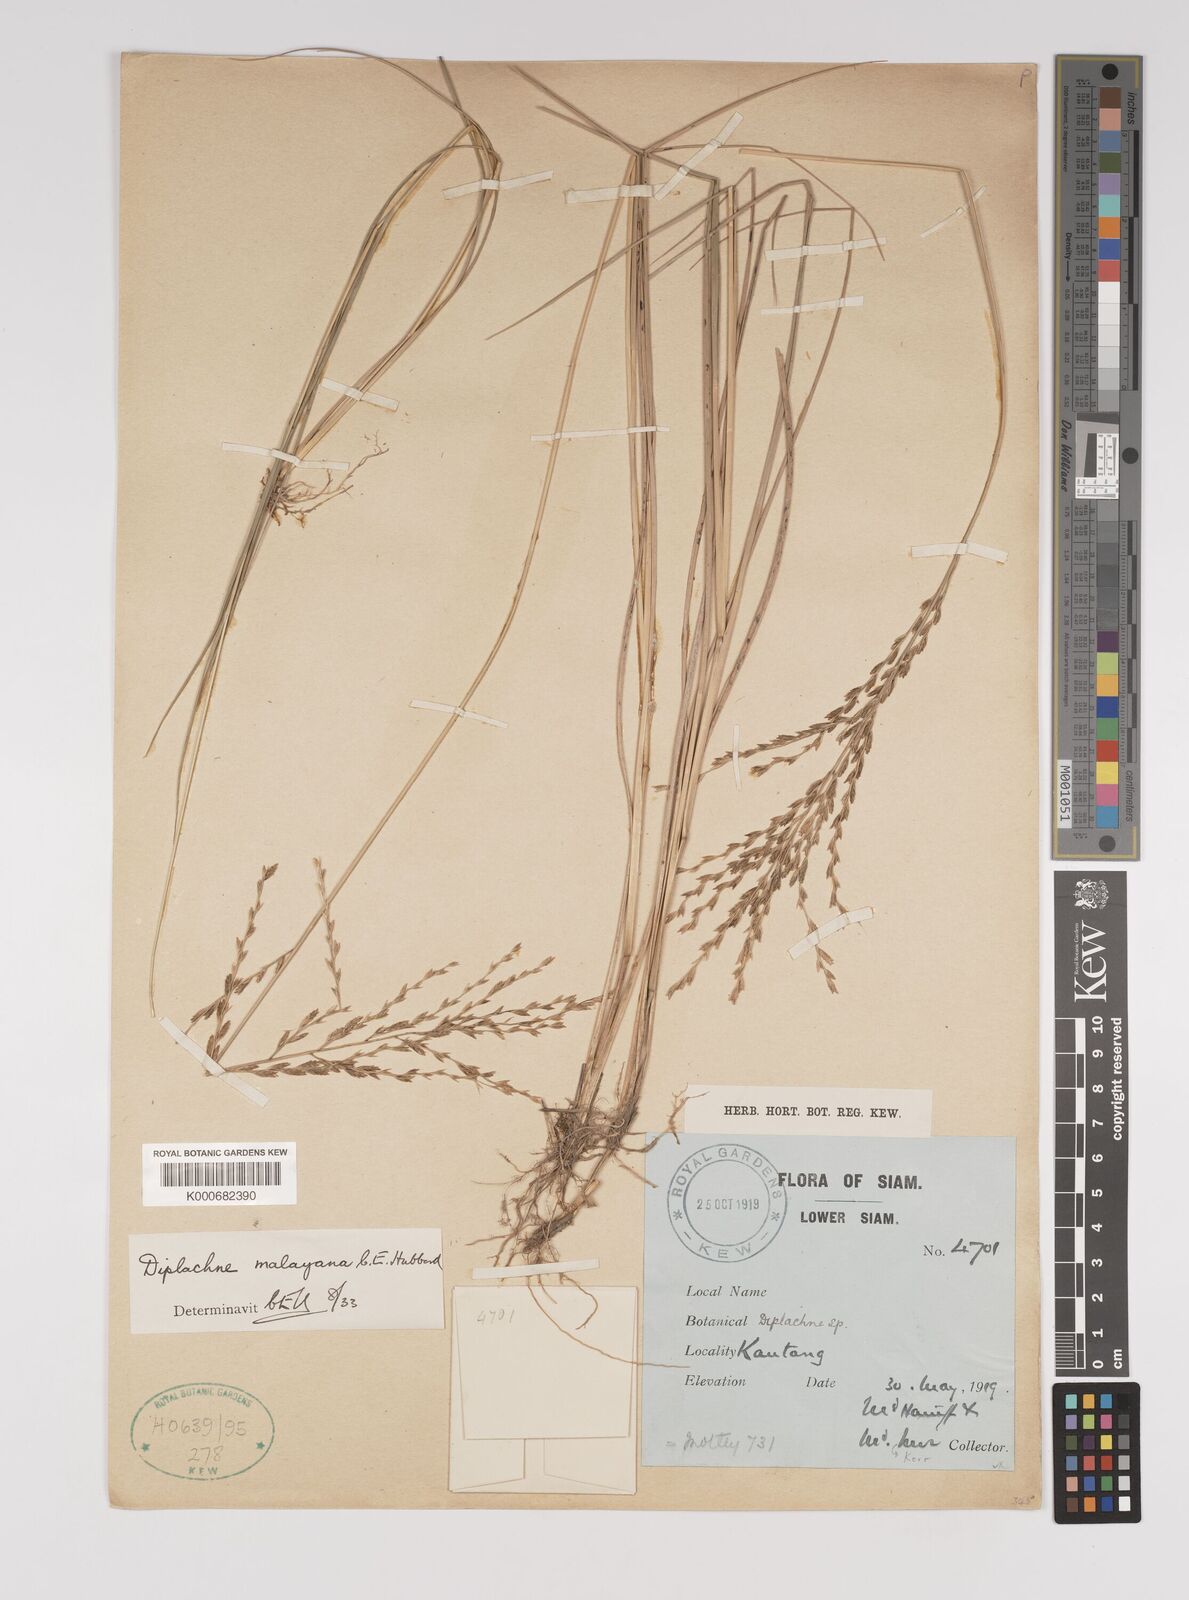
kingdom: Plantae
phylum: Tracheophyta
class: Liliopsida
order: Poales
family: Poaceae
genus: Leptochloa
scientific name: Leptochloa malayana
